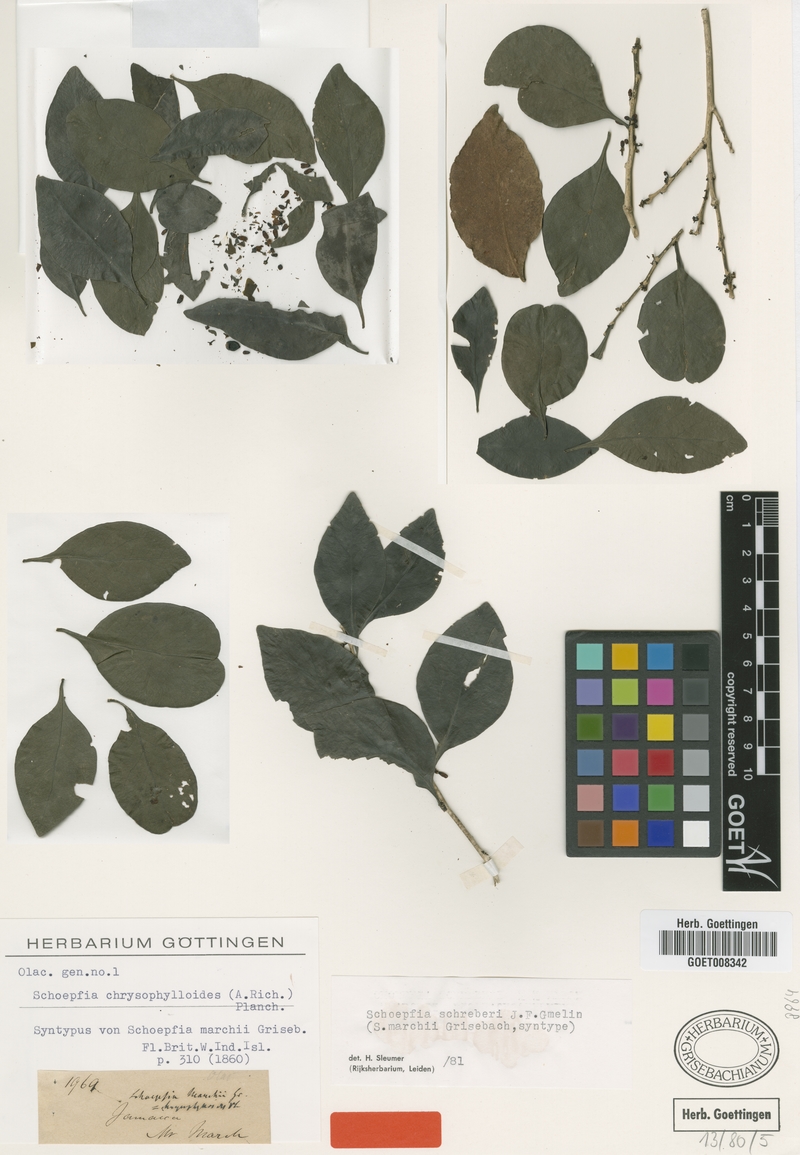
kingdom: Plantae
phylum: Tracheophyta
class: Magnoliopsida
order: Santalales
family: Schoepfiaceae
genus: Schoepfia
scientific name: Schoepfia schreberi
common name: Gulf graytwig
